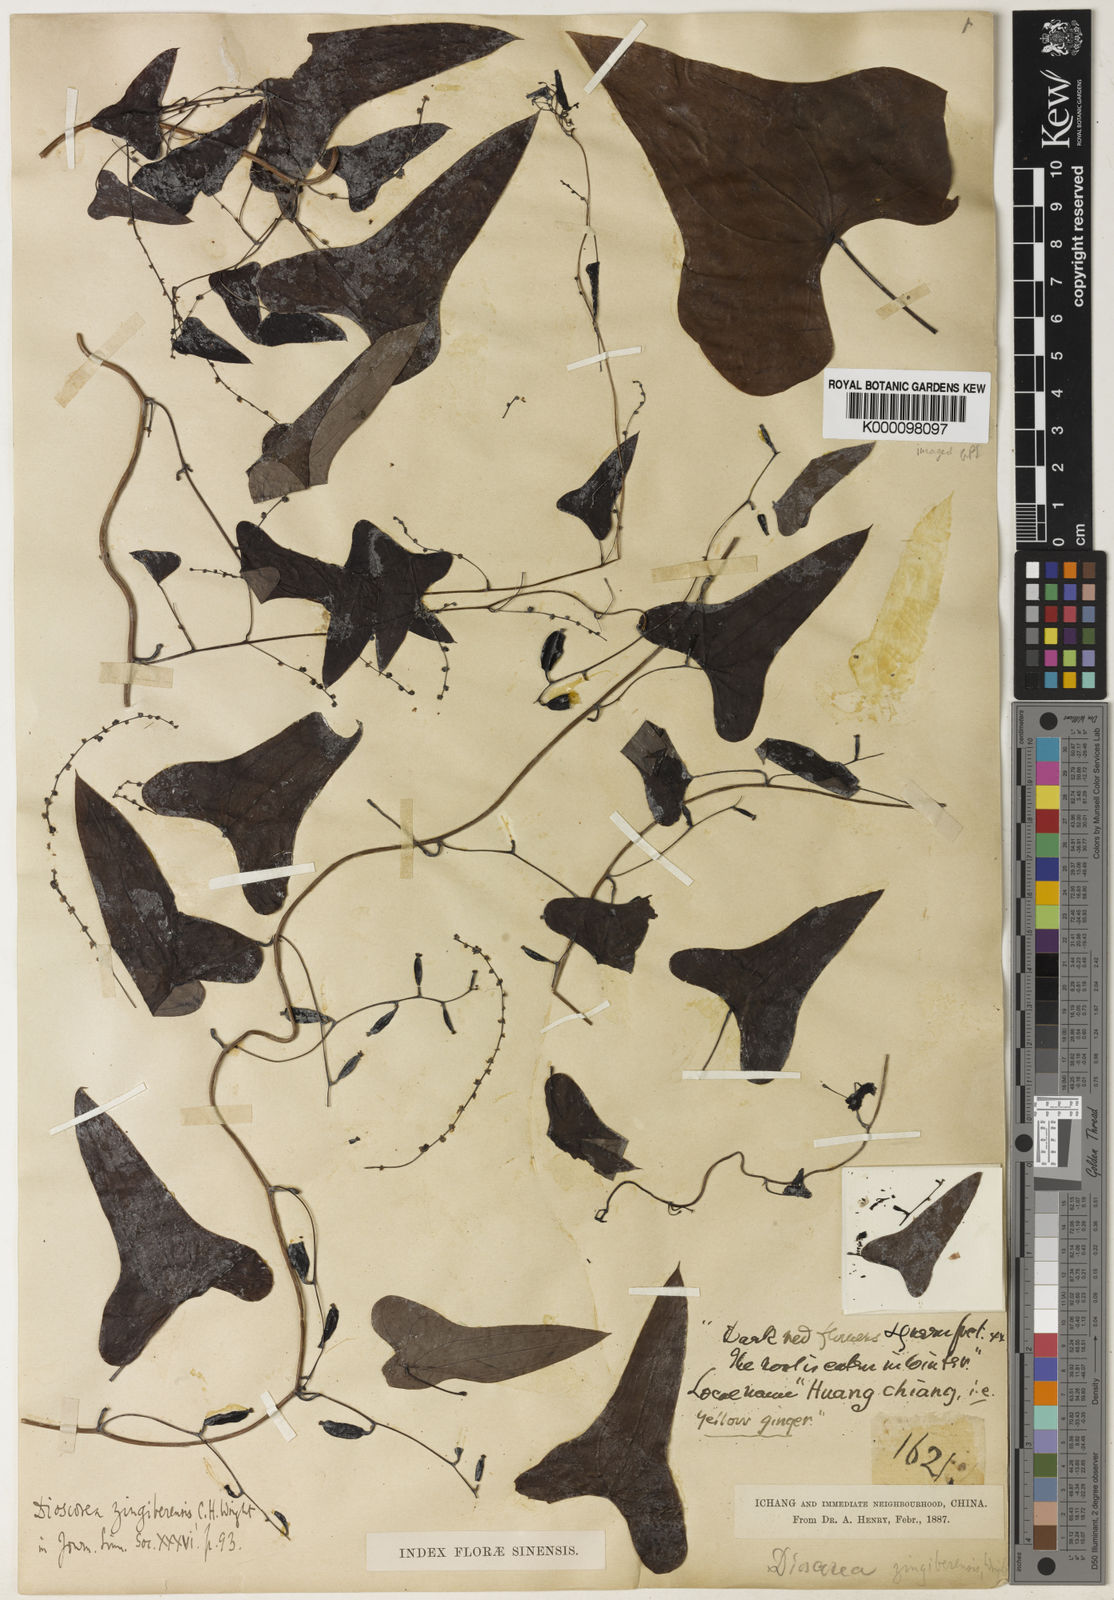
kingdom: Plantae
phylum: Tracheophyta
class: Liliopsida
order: Dioscoreales
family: Dioscoreaceae
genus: Dioscorea
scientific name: Dioscorea zingiberensis
